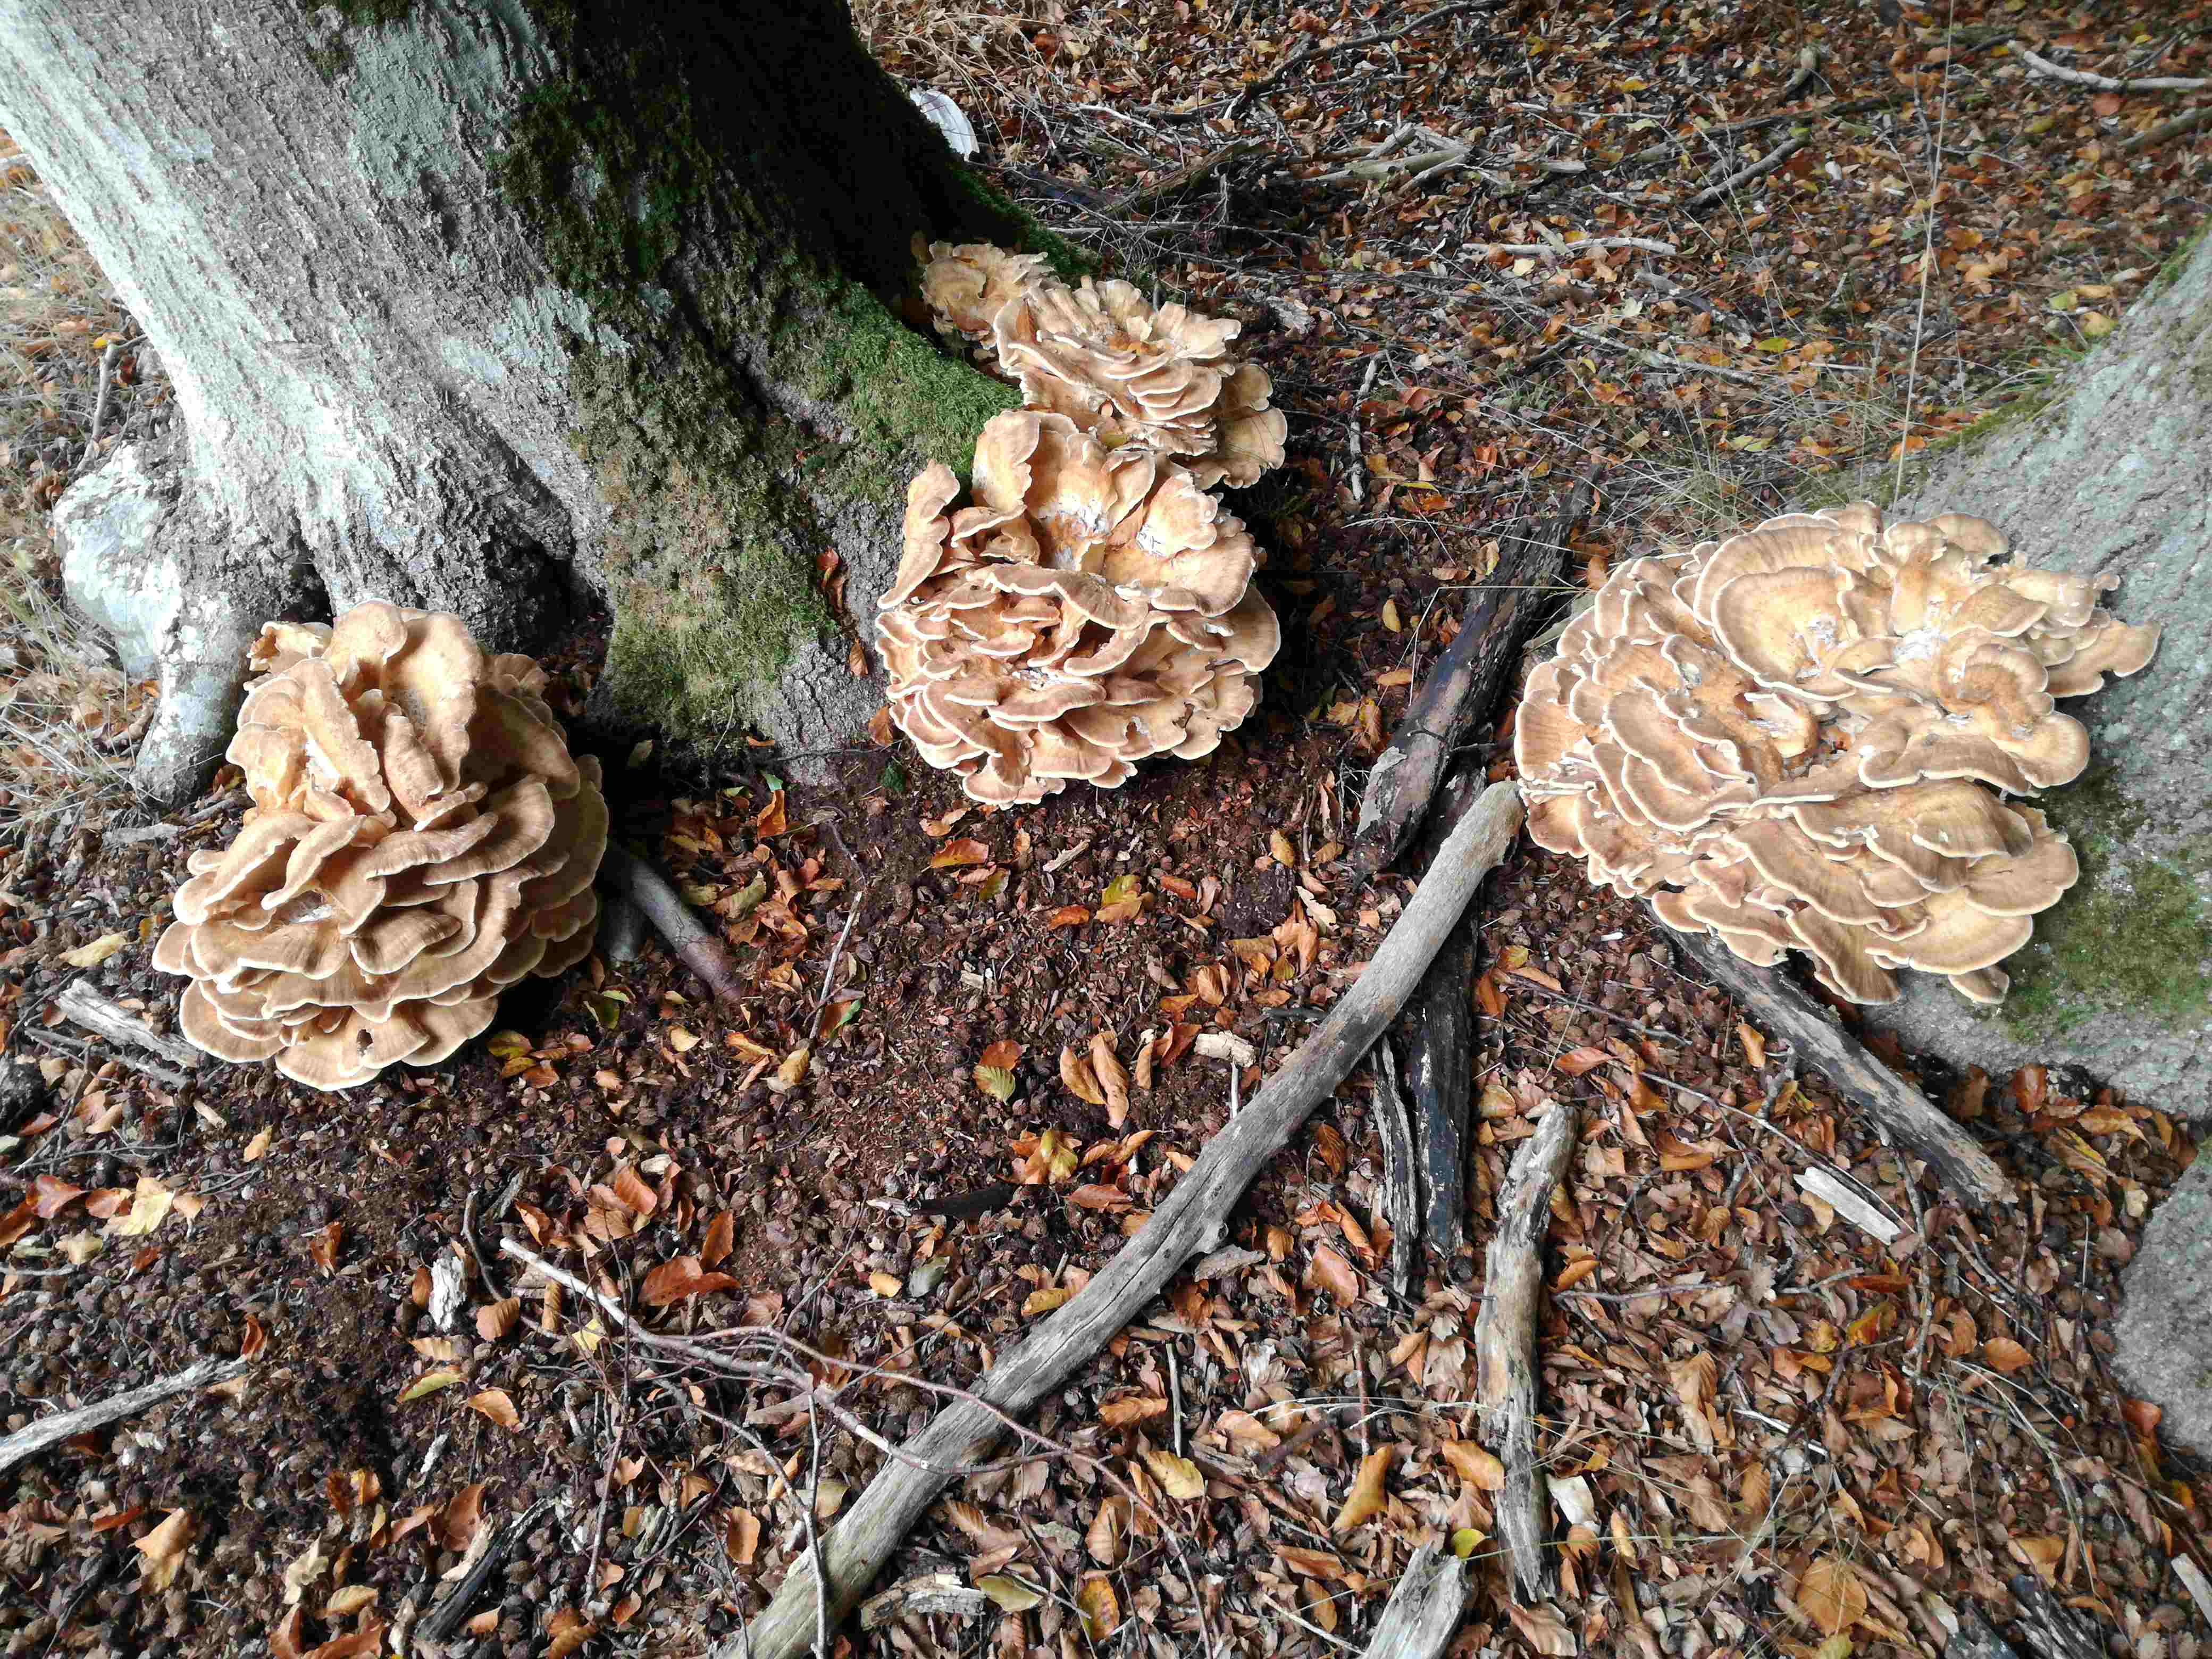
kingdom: Fungi
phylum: Basidiomycota
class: Agaricomycetes
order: Polyporales
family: Meripilaceae
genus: Meripilus
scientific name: Meripilus giganteus
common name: kæmpeporesvamp
